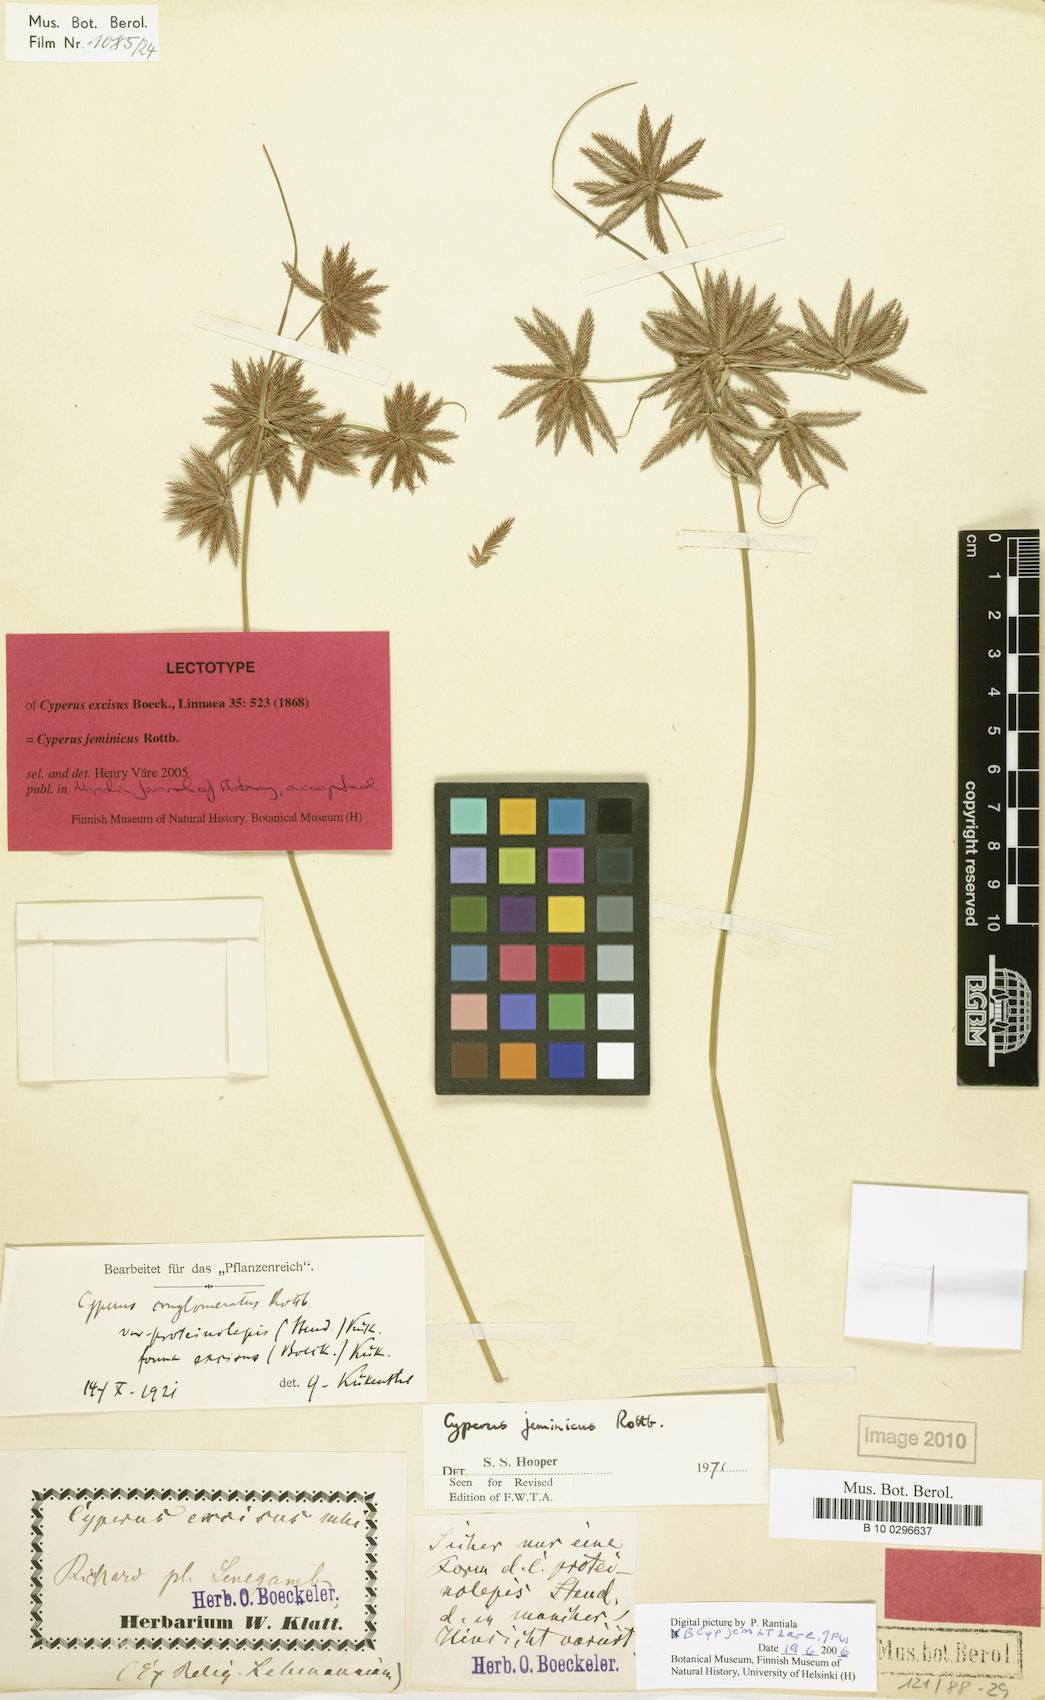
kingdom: Plantae
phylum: Tracheophyta
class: Liliopsida
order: Poales
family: Cyperaceae
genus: Cyperus
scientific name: Cyperus jeminicus
